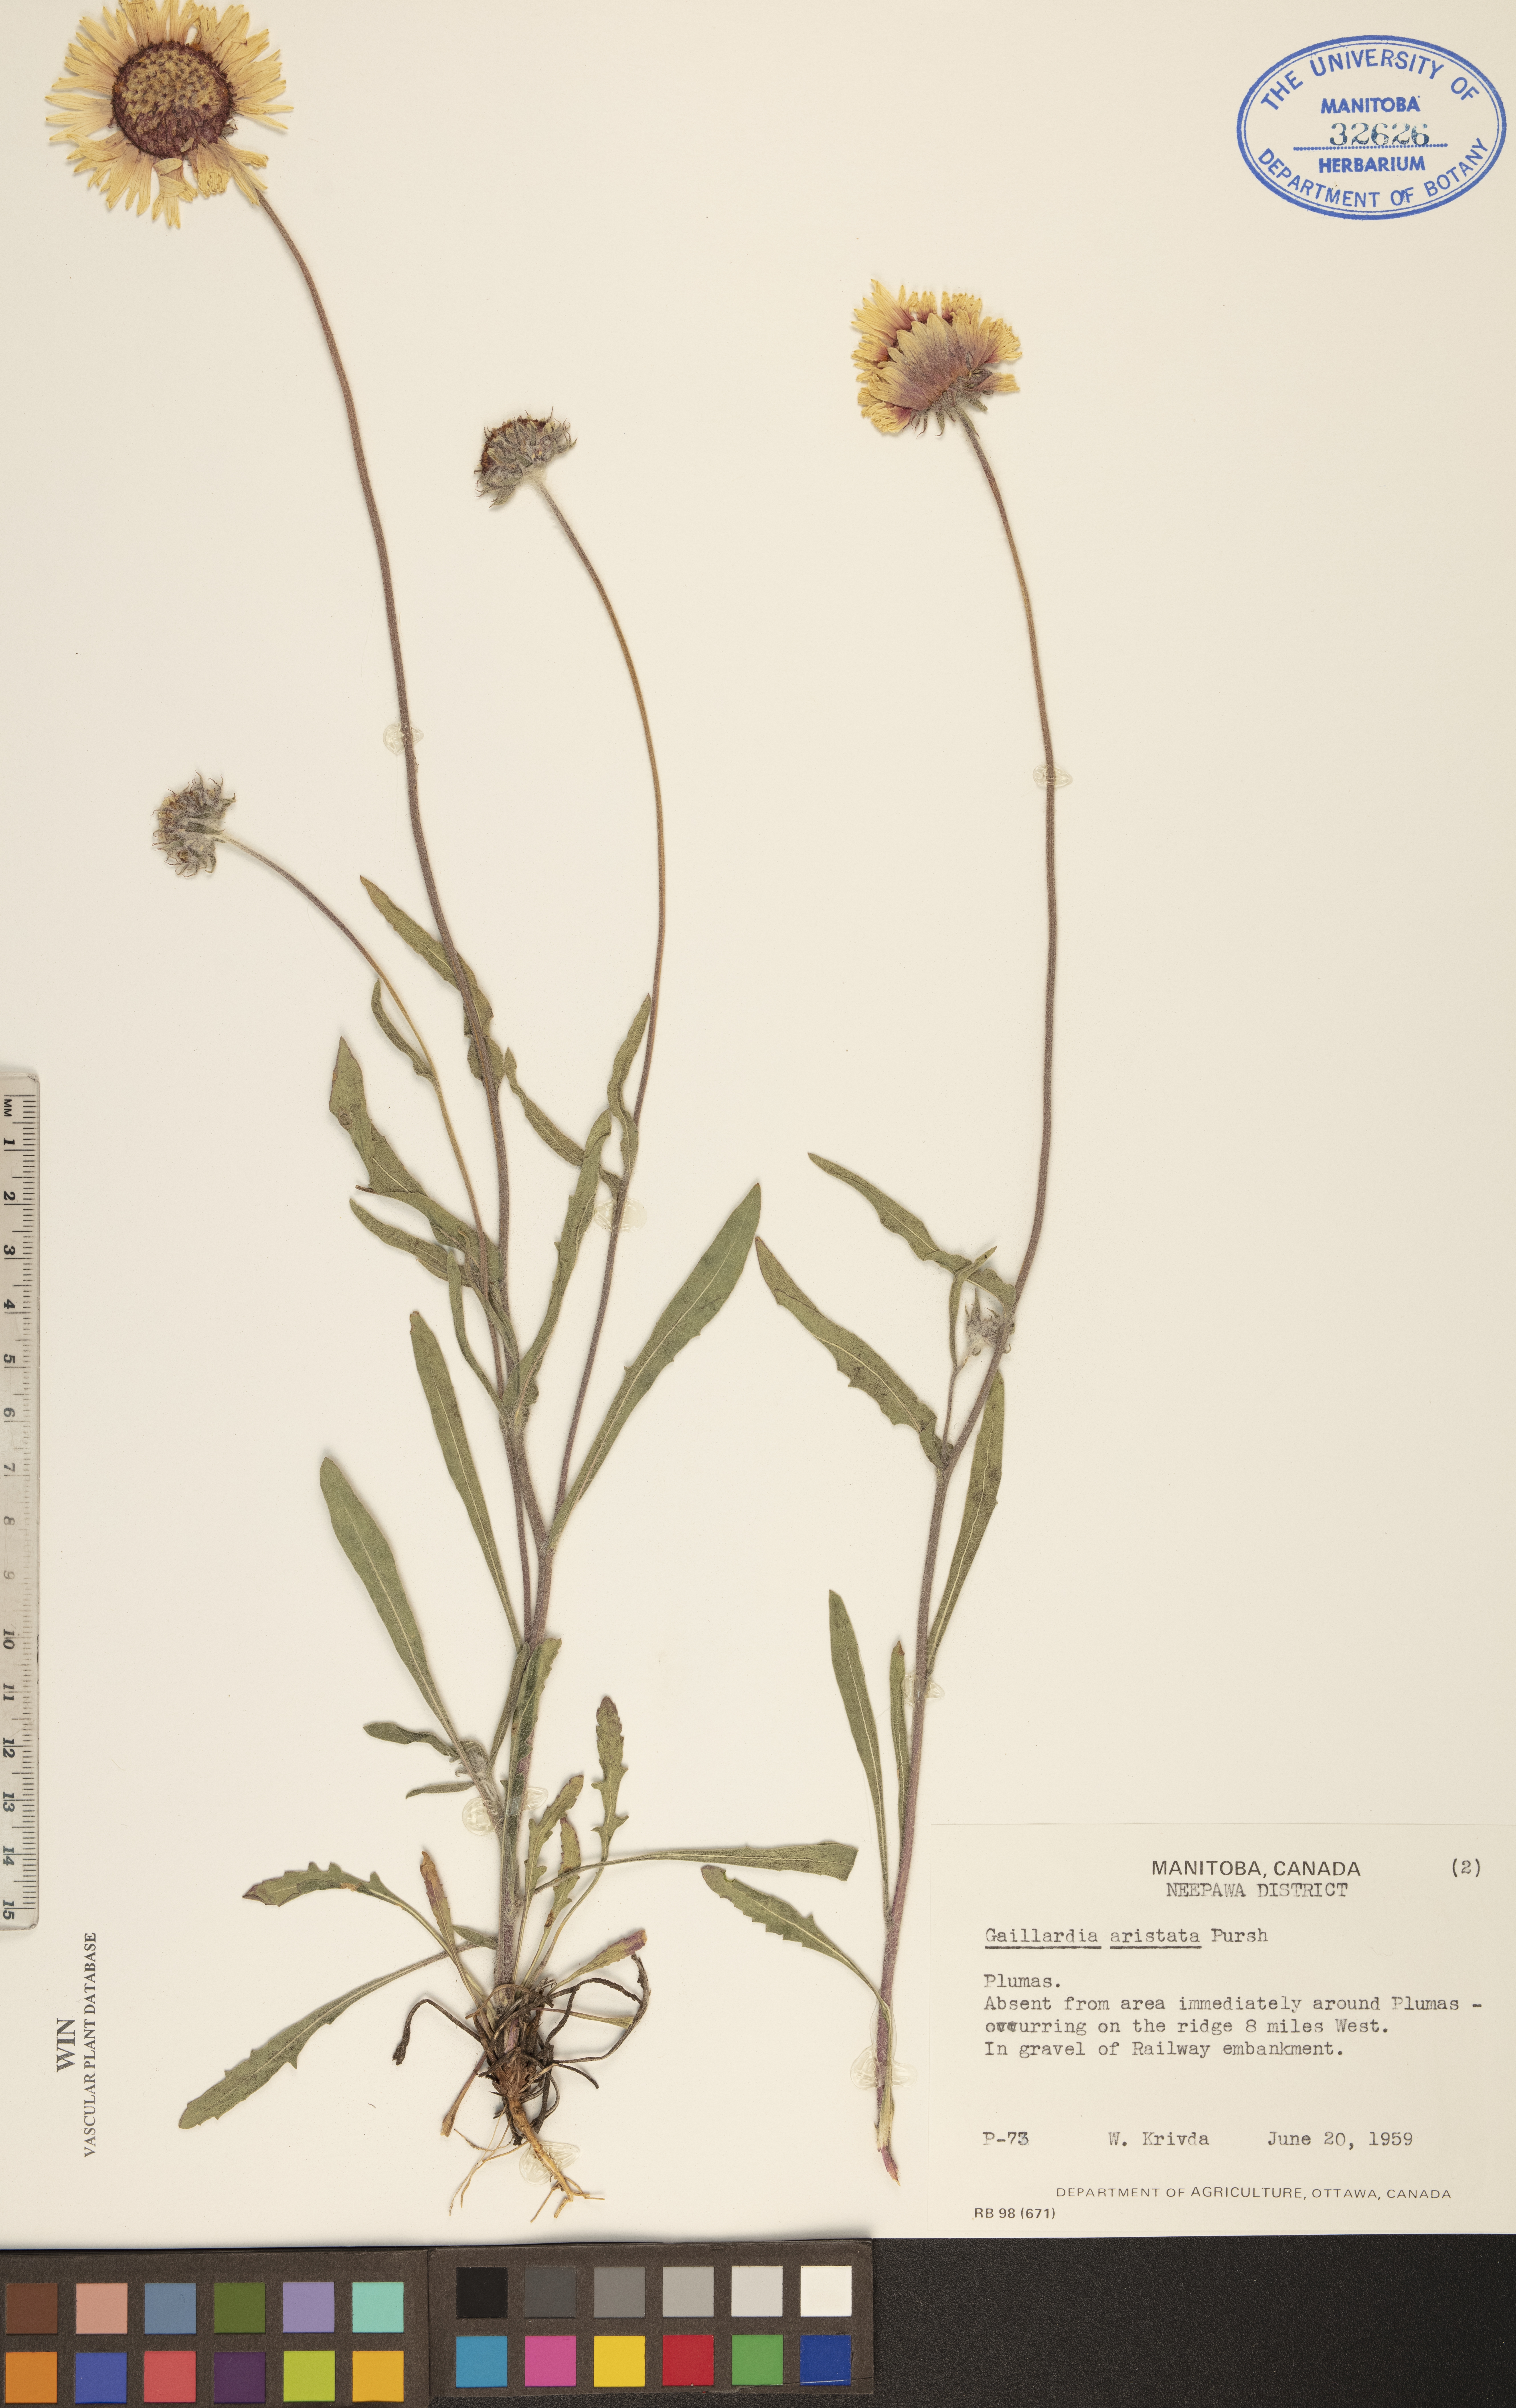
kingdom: Plantae
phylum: Tracheophyta
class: Magnoliopsida
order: Asterales
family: Asteraceae
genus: Gaillardia
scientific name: Gaillardia aristata
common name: Blanket-flower
